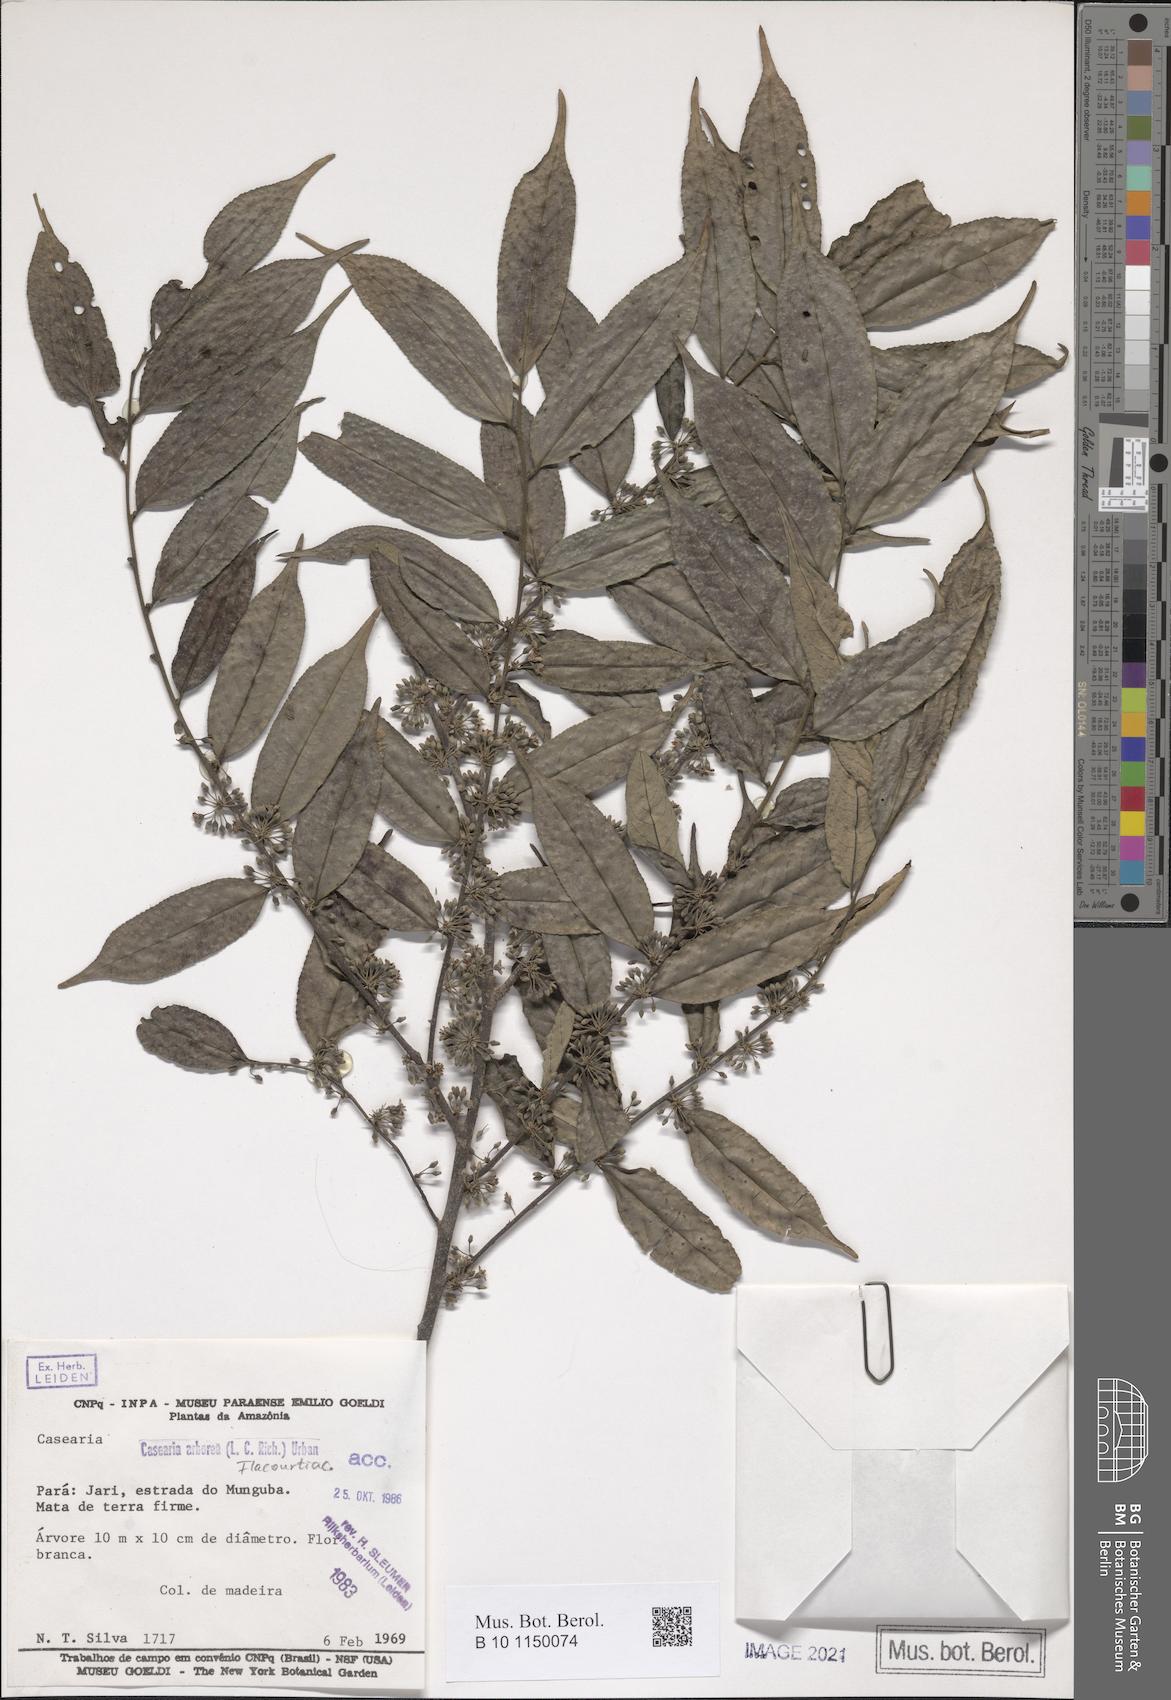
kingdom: Plantae
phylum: Tracheophyta
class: Magnoliopsida
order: Malpighiales
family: Salicaceae
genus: Casearia
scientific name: Casearia arborea
